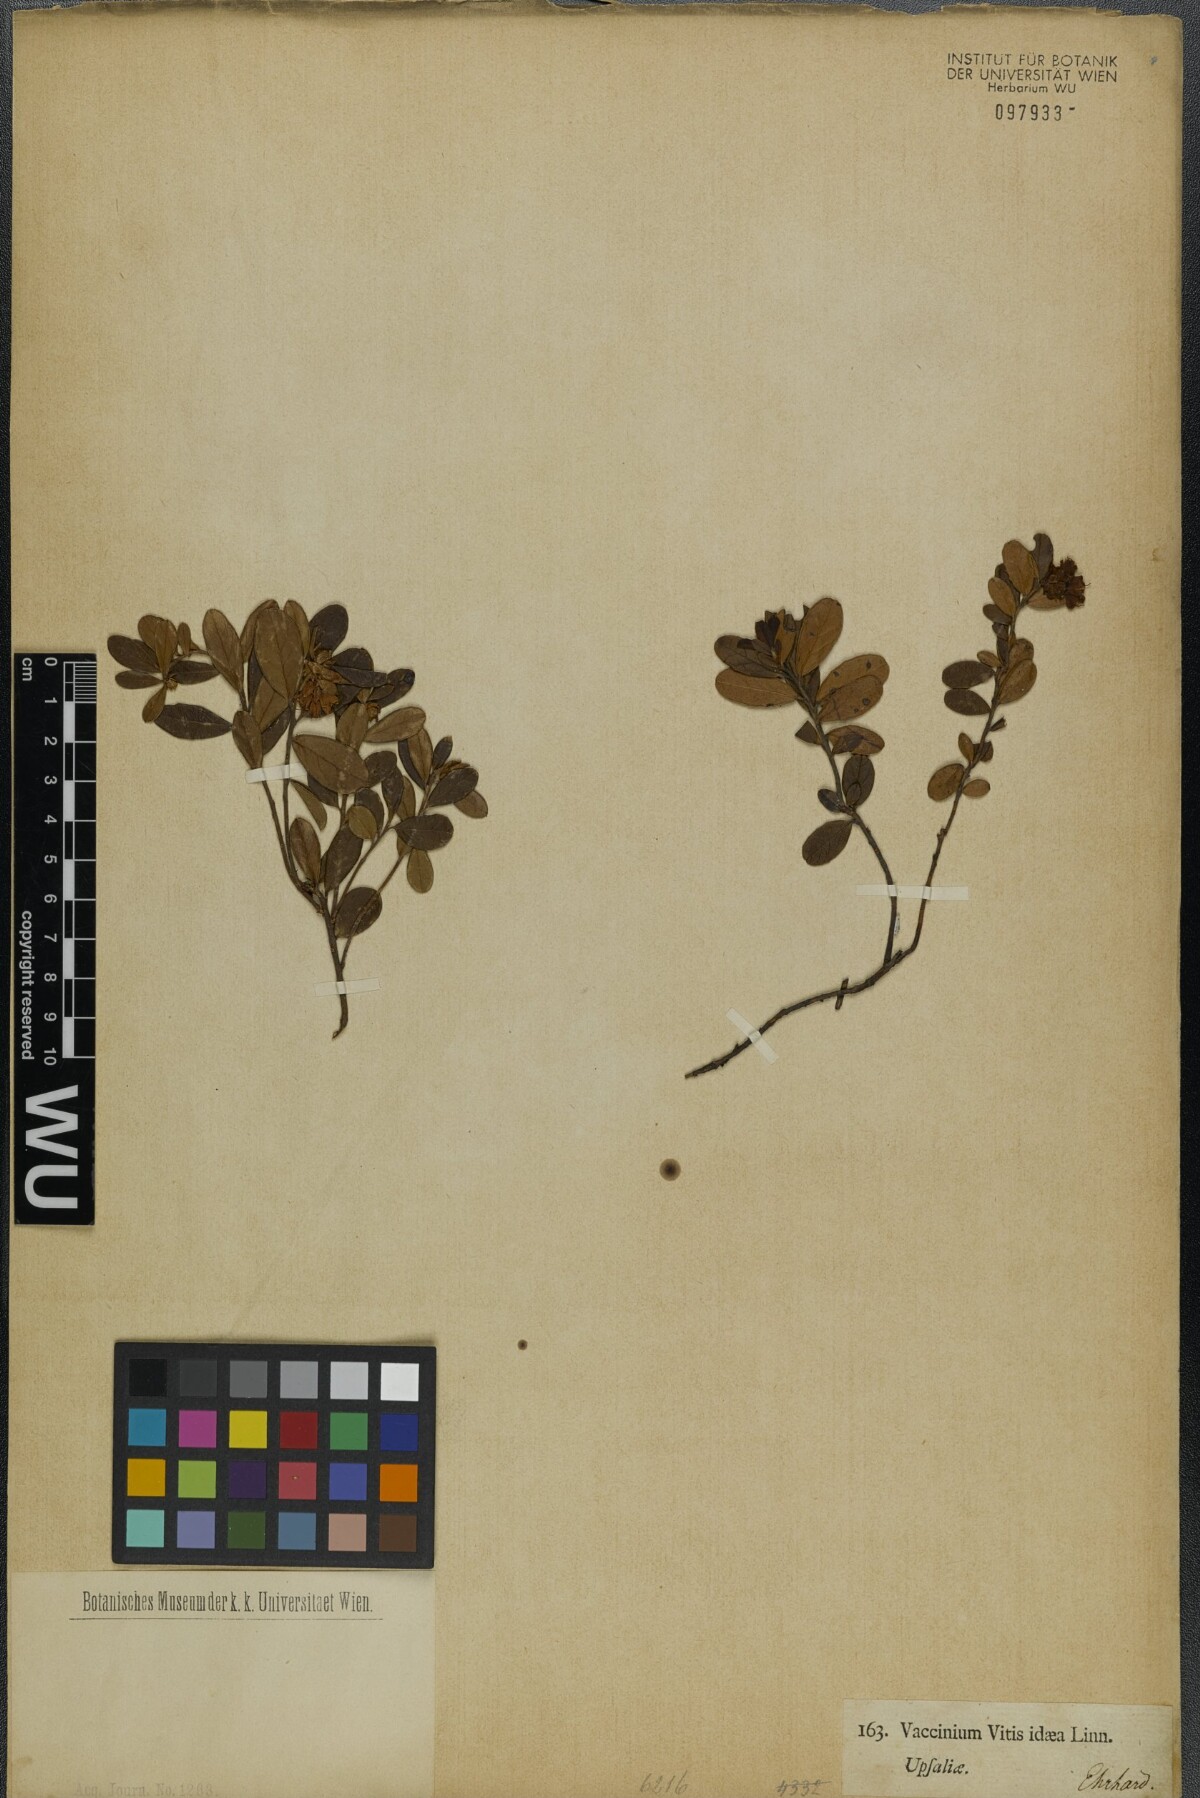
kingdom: Plantae
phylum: Tracheophyta
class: Magnoliopsida
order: Ericales
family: Ericaceae
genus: Vaccinium
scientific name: Vaccinium vitis-idaea
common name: Cowberry
